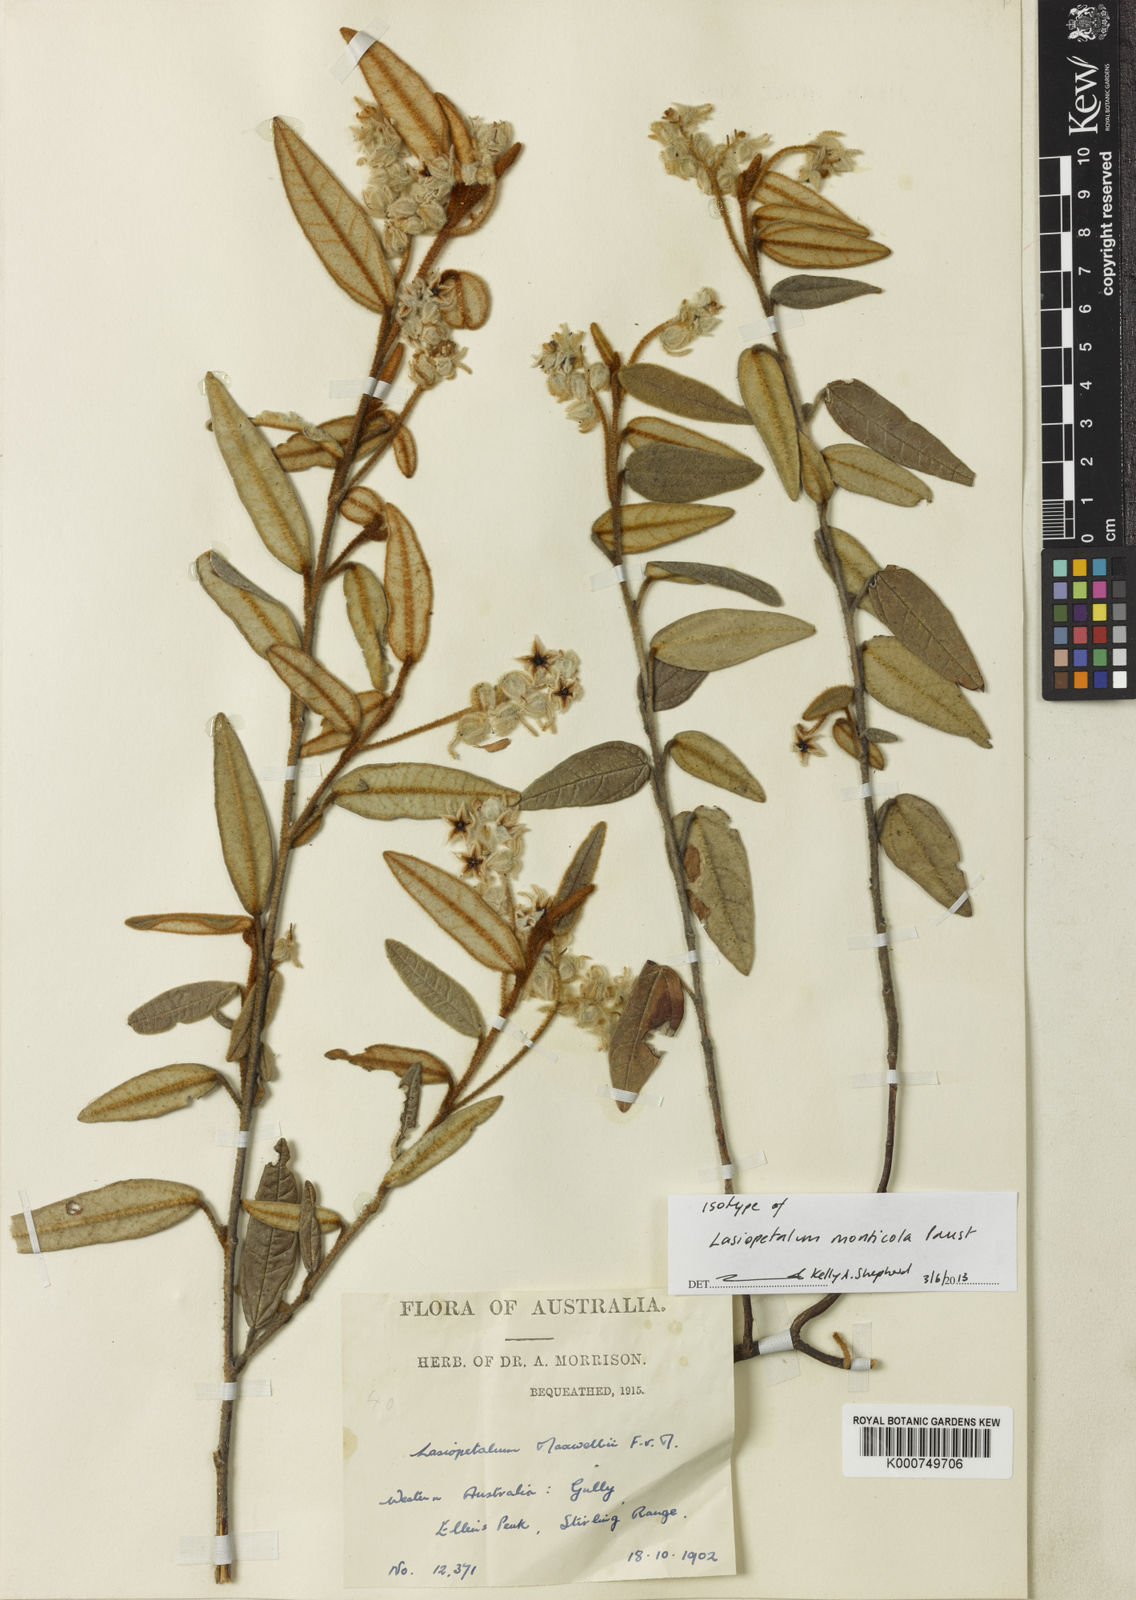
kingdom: Plantae
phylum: Tracheophyta
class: Magnoliopsida
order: Malvales
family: Malvaceae
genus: Lasiopetalum
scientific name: Lasiopetalum monticola
